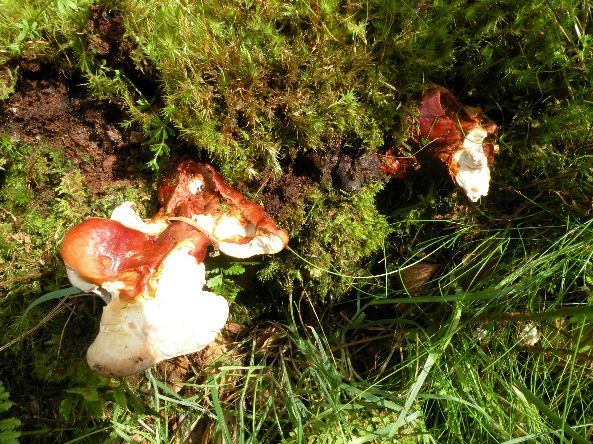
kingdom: Fungi
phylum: Basidiomycota
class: Agaricomycetes
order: Polyporales
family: Polyporaceae
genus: Ganoderma
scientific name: Ganoderma lucidum
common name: skinnende lakporesvamp
